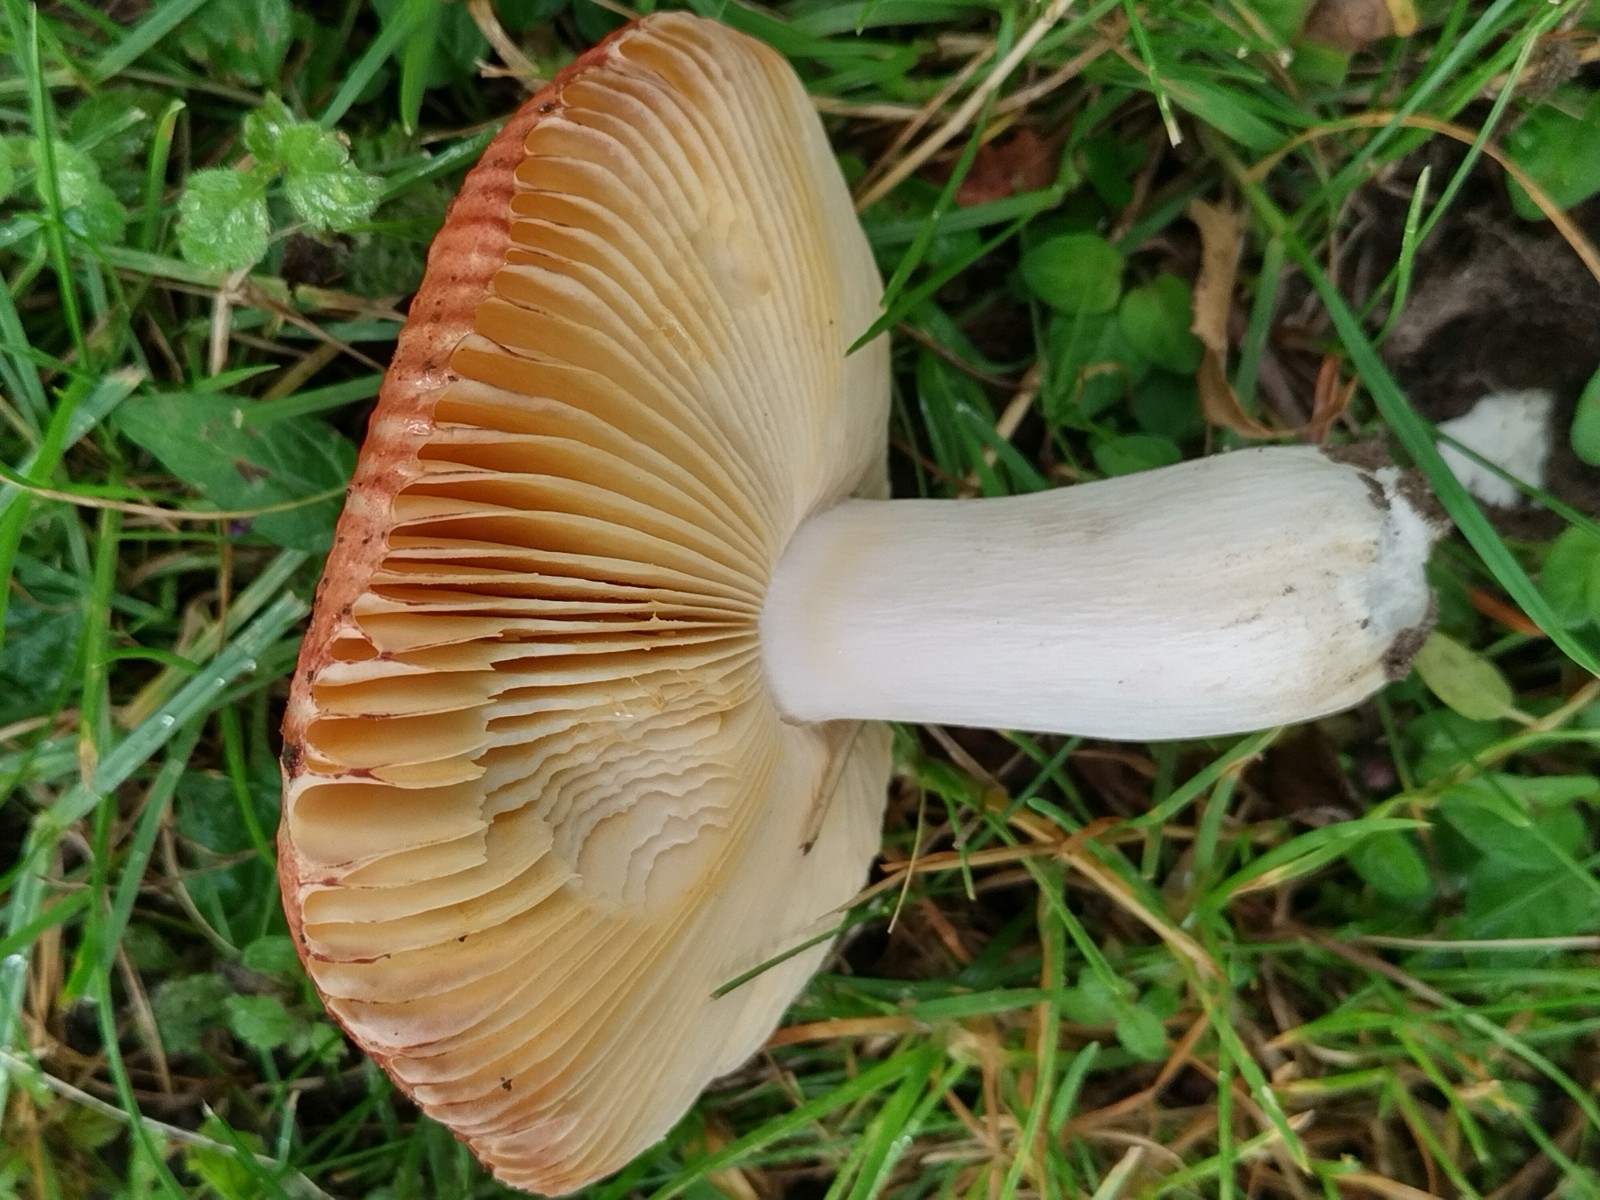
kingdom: Fungi
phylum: Basidiomycota
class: Agaricomycetes
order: Russulales
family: Russulaceae
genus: Russula
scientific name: Russula
